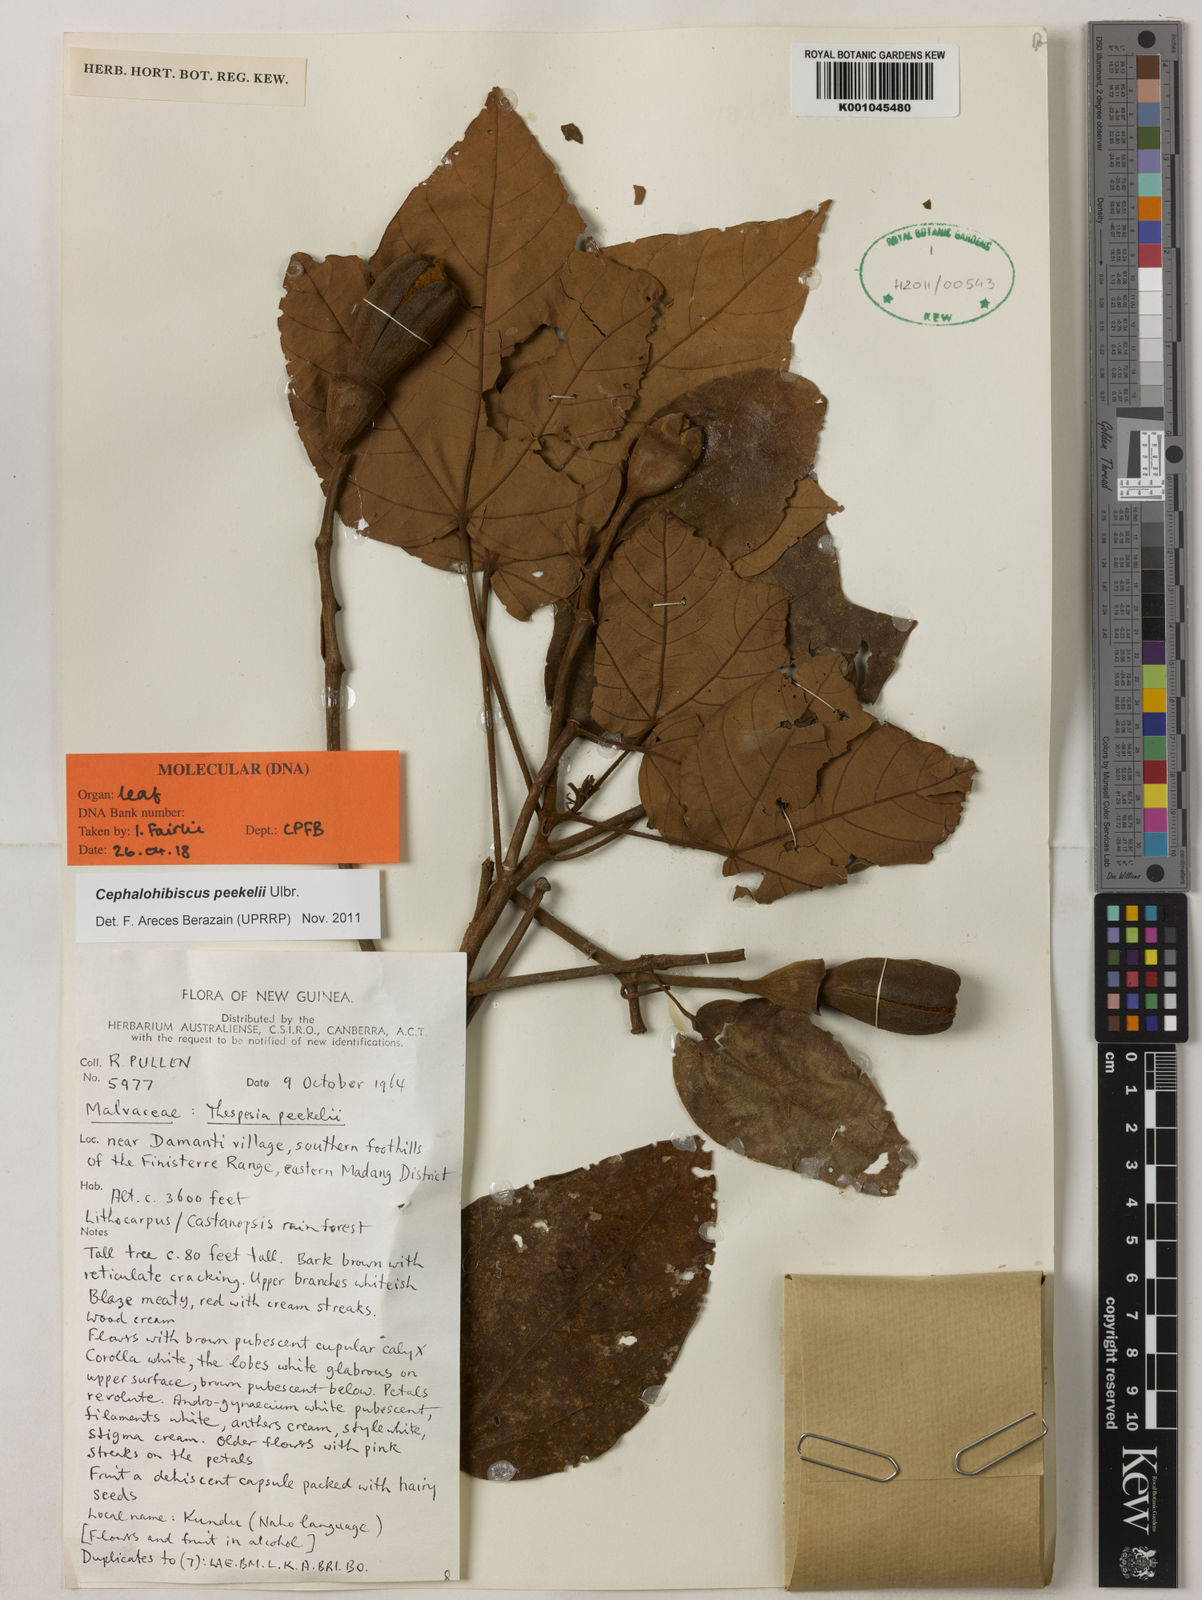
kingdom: Plantae
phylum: Tracheophyta
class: Magnoliopsida
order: Malvales
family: Malvaceae
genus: Cephalohibiscus
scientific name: Cephalohibiscus peekelii
